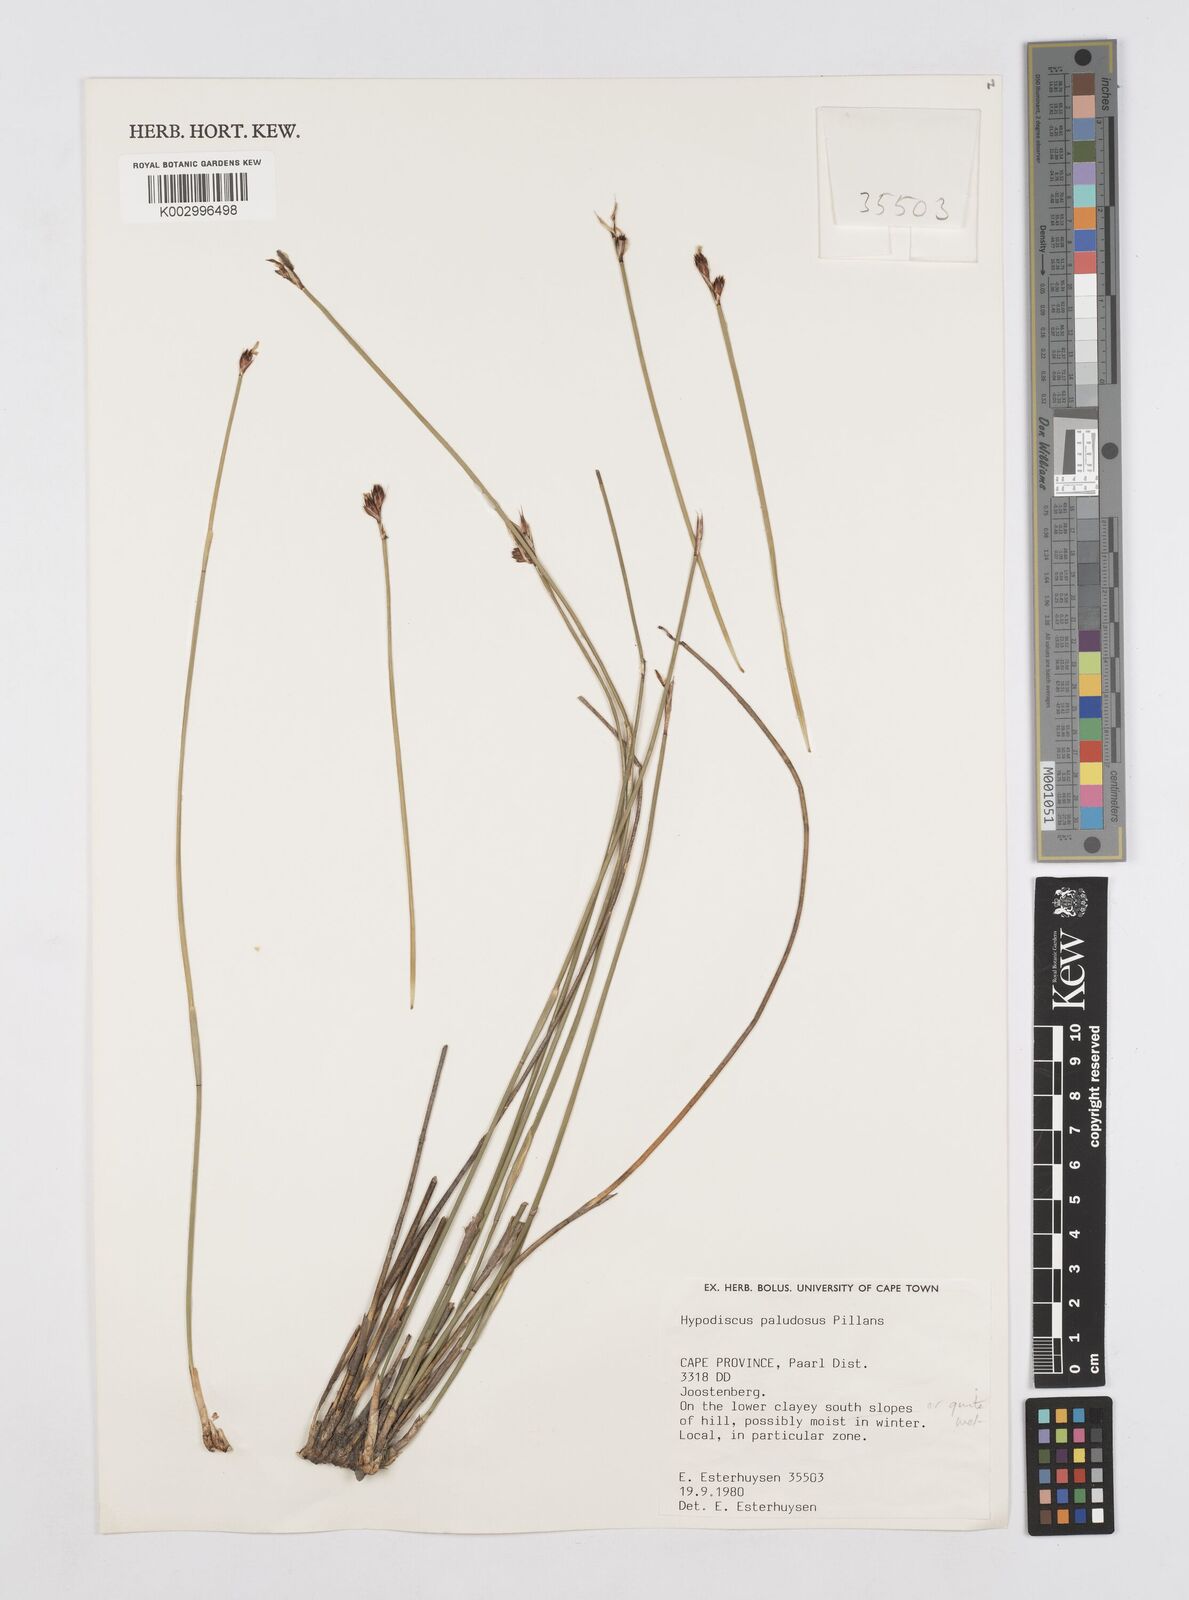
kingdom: Plantae
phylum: Tracheophyta
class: Liliopsida
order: Poales
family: Restionaceae
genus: Hypodiscus
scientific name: Hypodiscus rugosus
